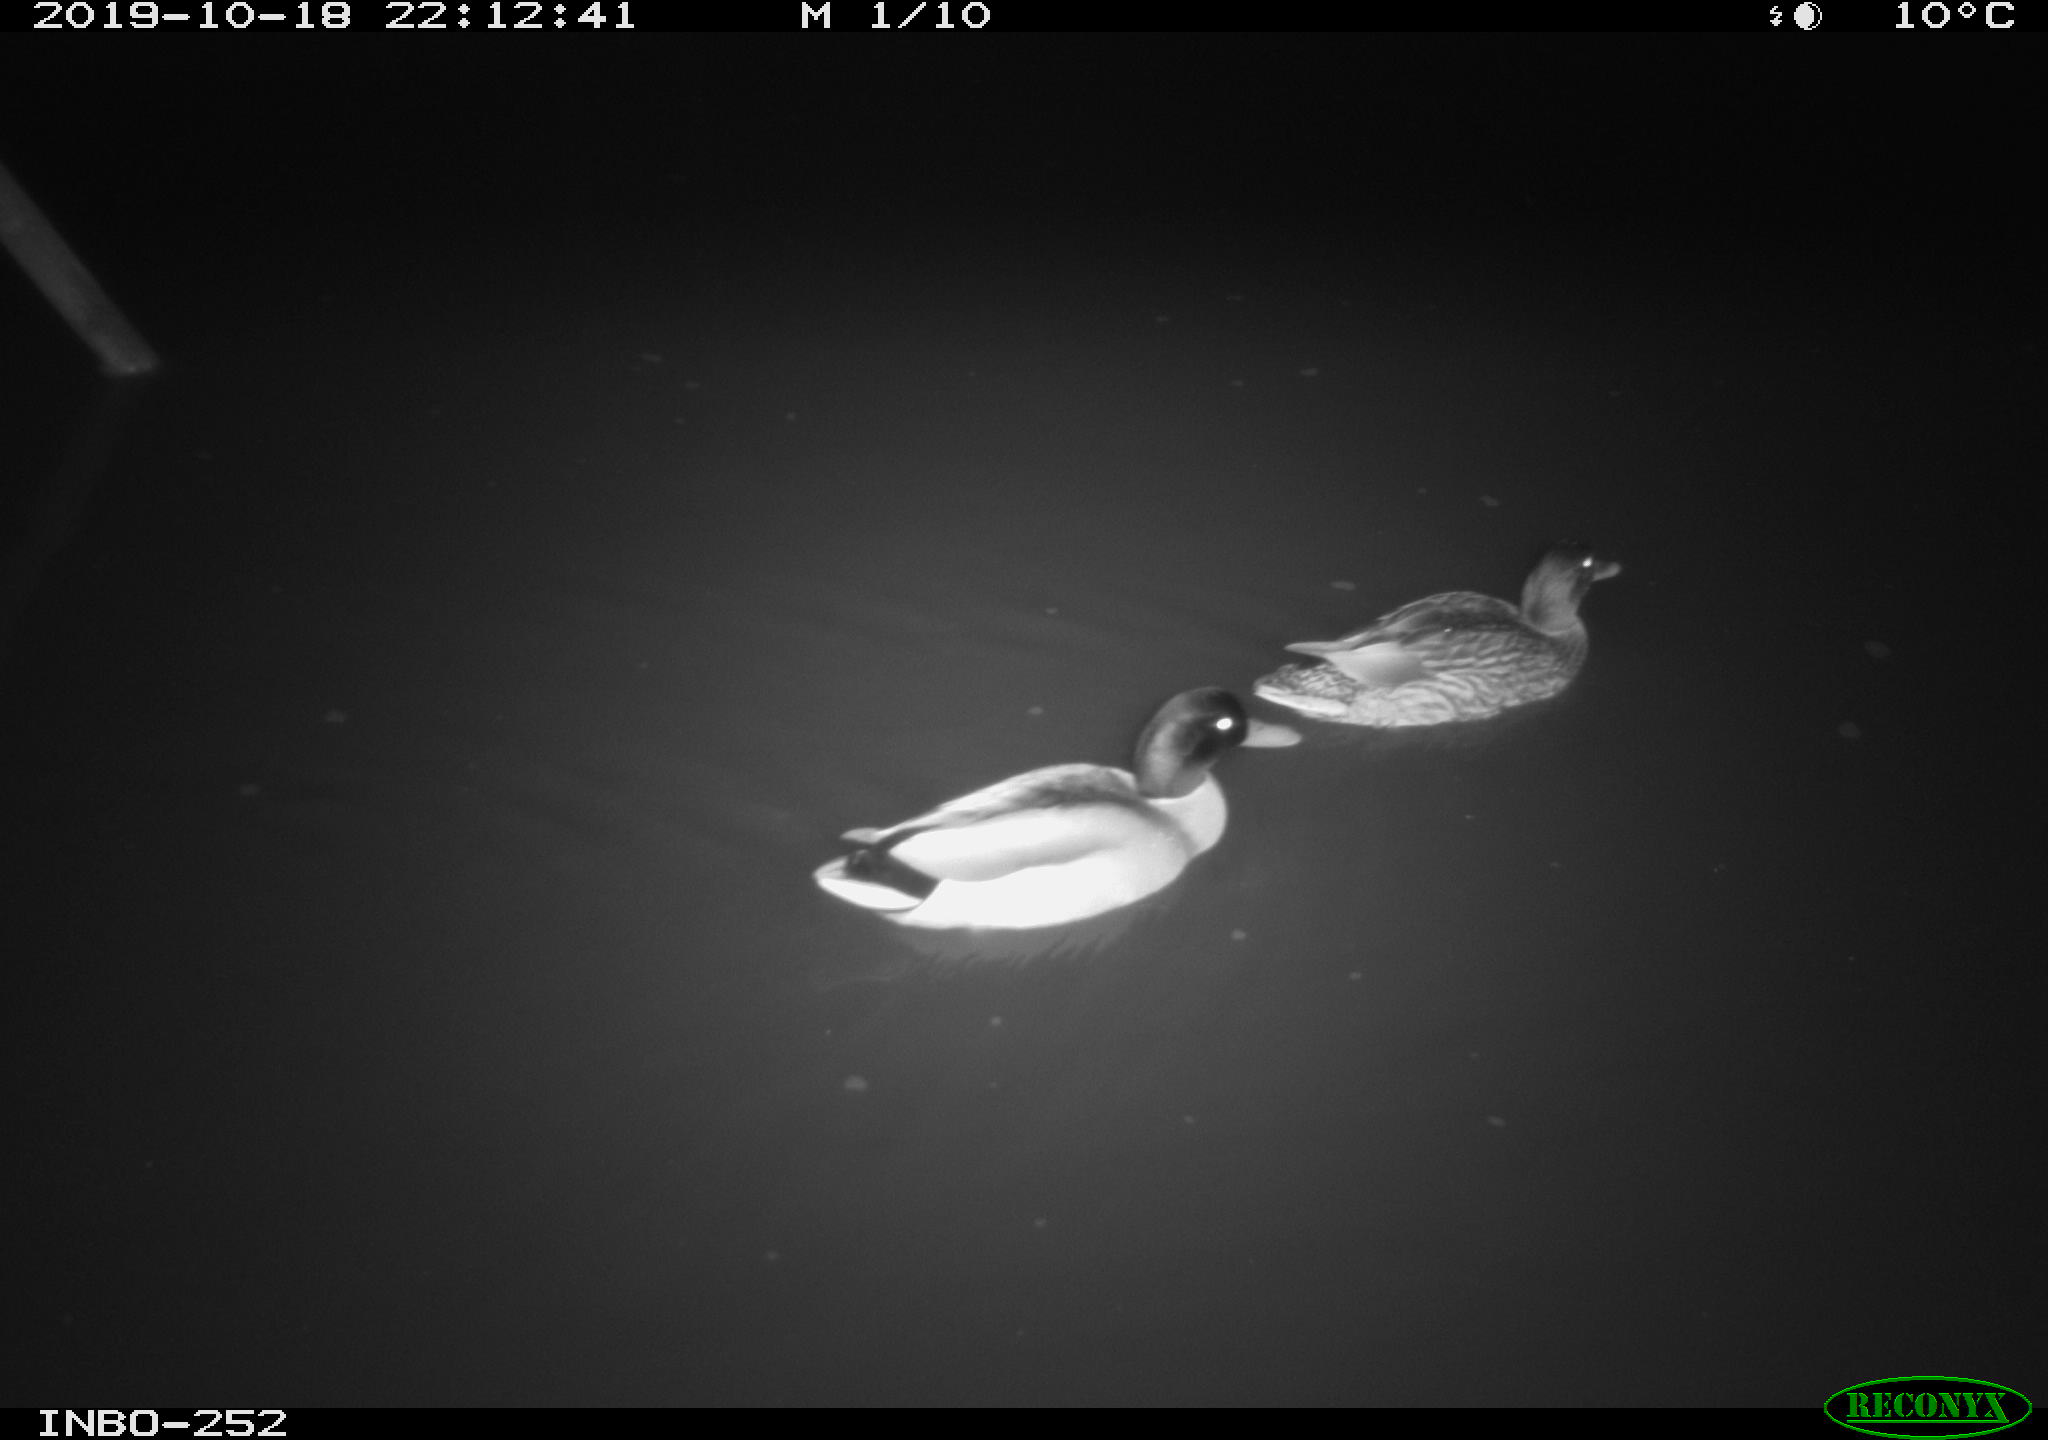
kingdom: Animalia
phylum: Chordata
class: Aves
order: Anseriformes
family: Anatidae
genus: Anas
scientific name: Anas platyrhynchos
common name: Mallard
